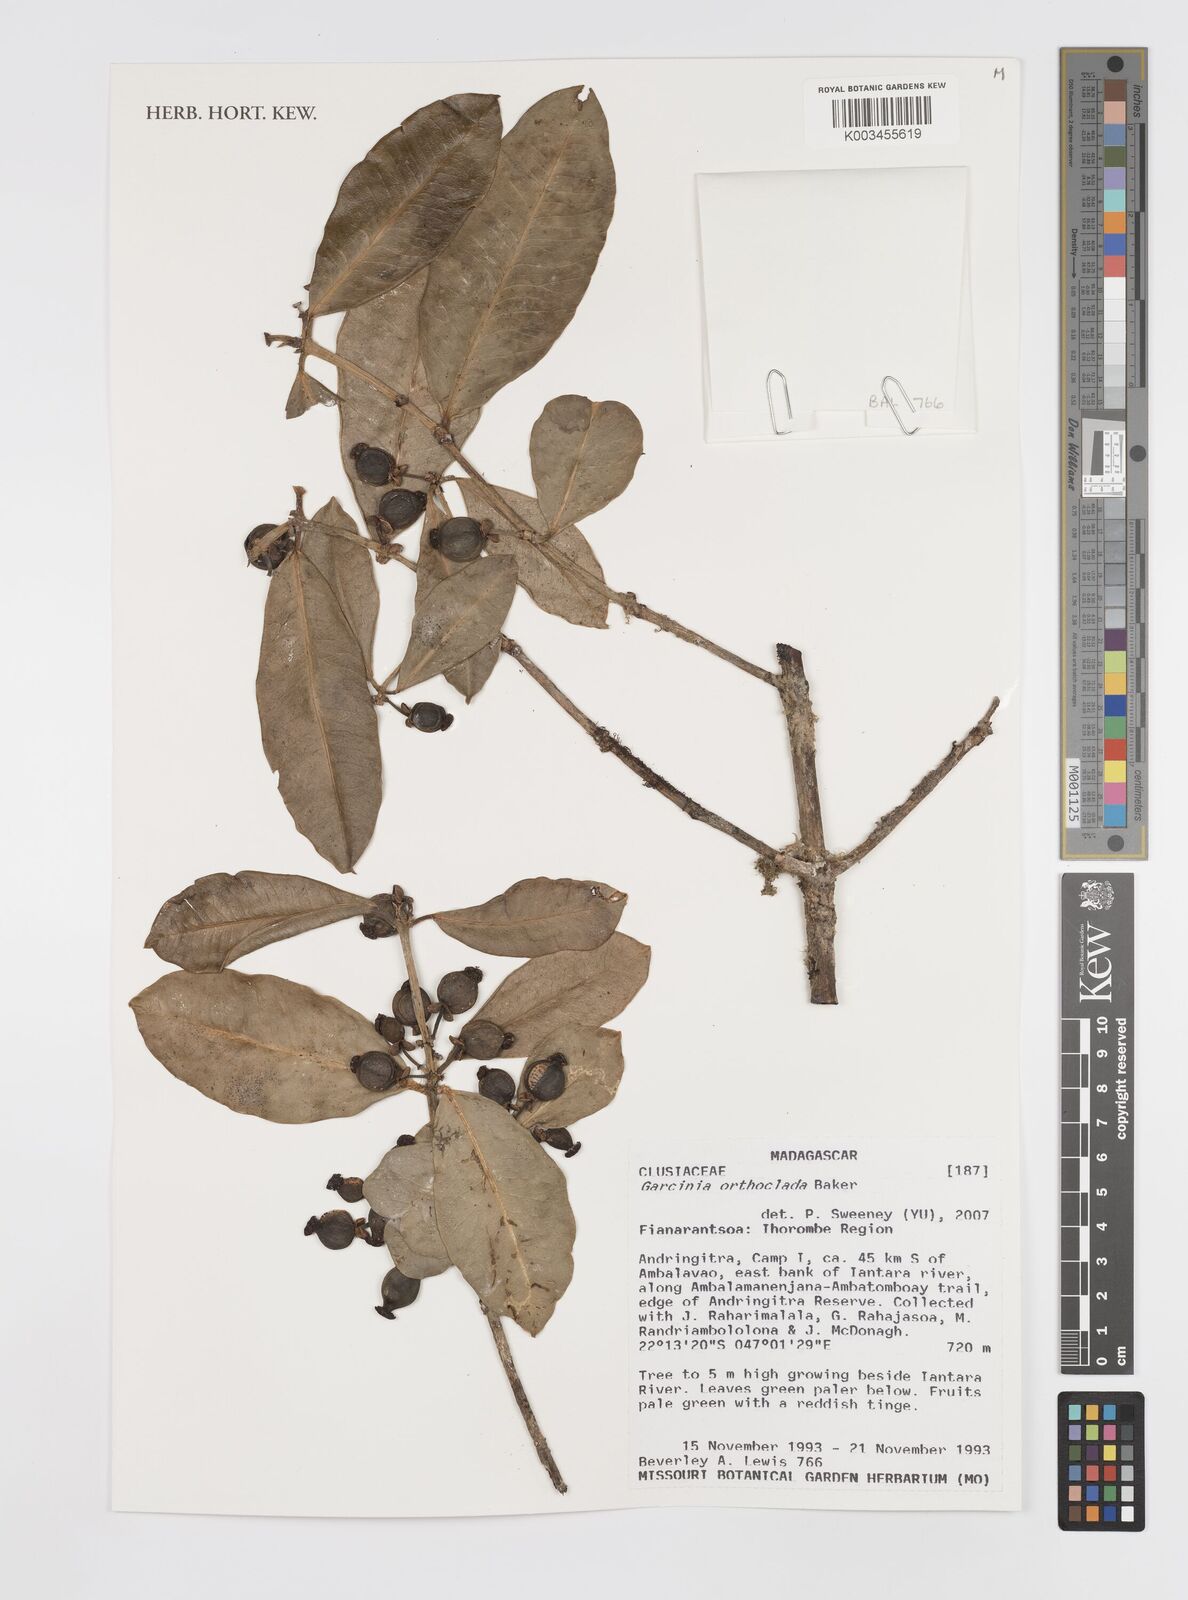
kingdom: Plantae
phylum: Tracheophyta
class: Magnoliopsida
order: Malpighiales
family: Clusiaceae
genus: Garcinia
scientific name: Garcinia orthoclada
